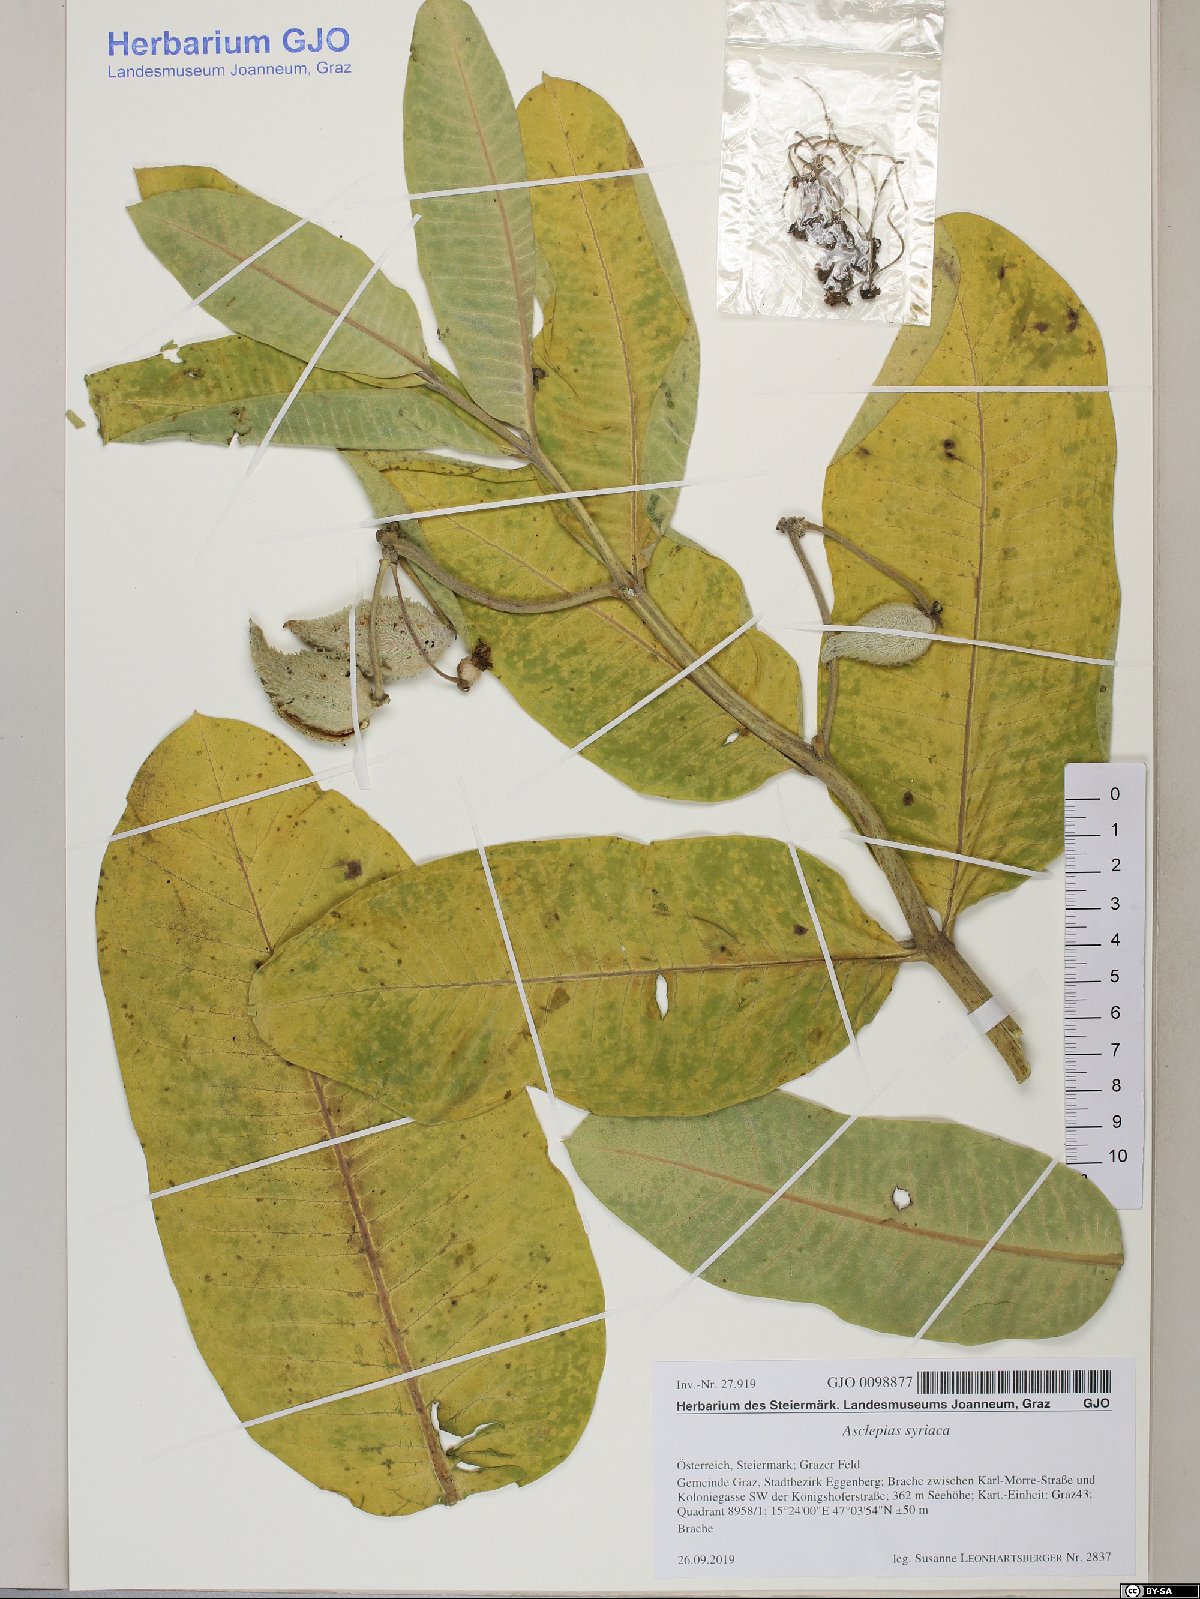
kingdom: Plantae
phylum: Tracheophyta
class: Magnoliopsida
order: Gentianales
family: Apocynaceae
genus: Asclepias
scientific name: Asclepias syriaca
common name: Common milkweed
